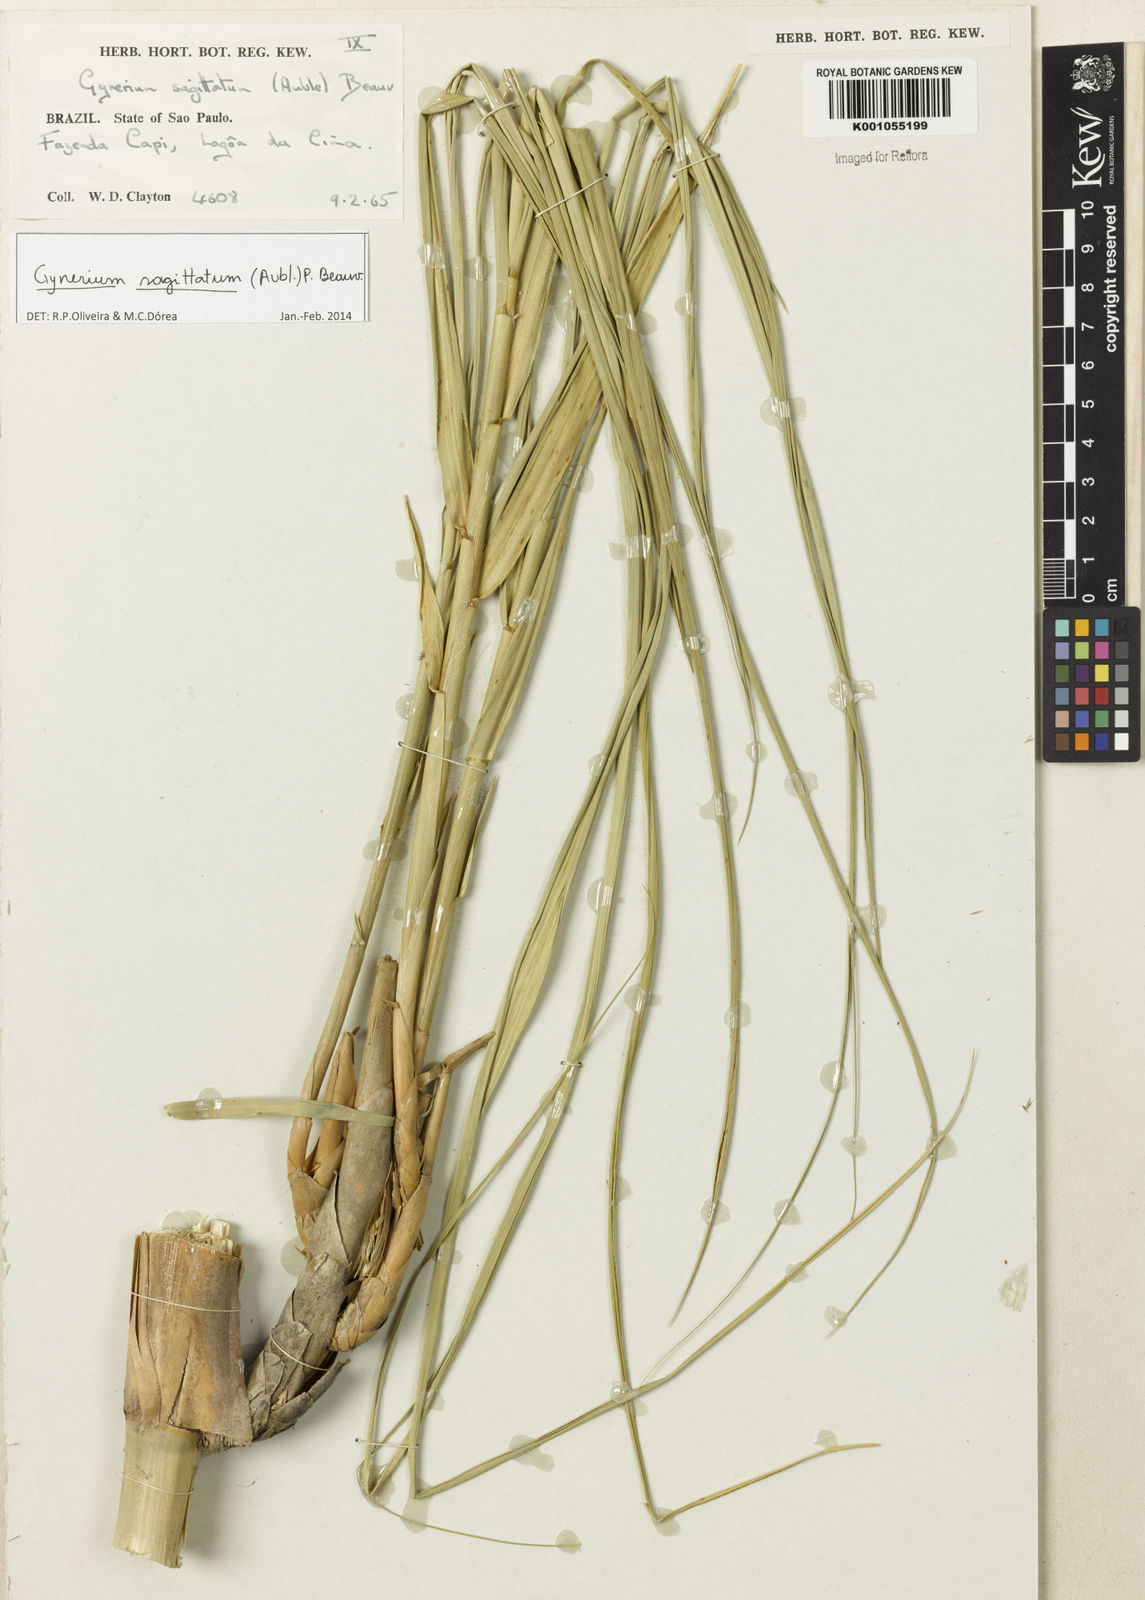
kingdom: Plantae
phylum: Tracheophyta
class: Liliopsida
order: Poales
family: Poaceae
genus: Gynerium
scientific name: Gynerium sagittatum
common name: Wild cane
